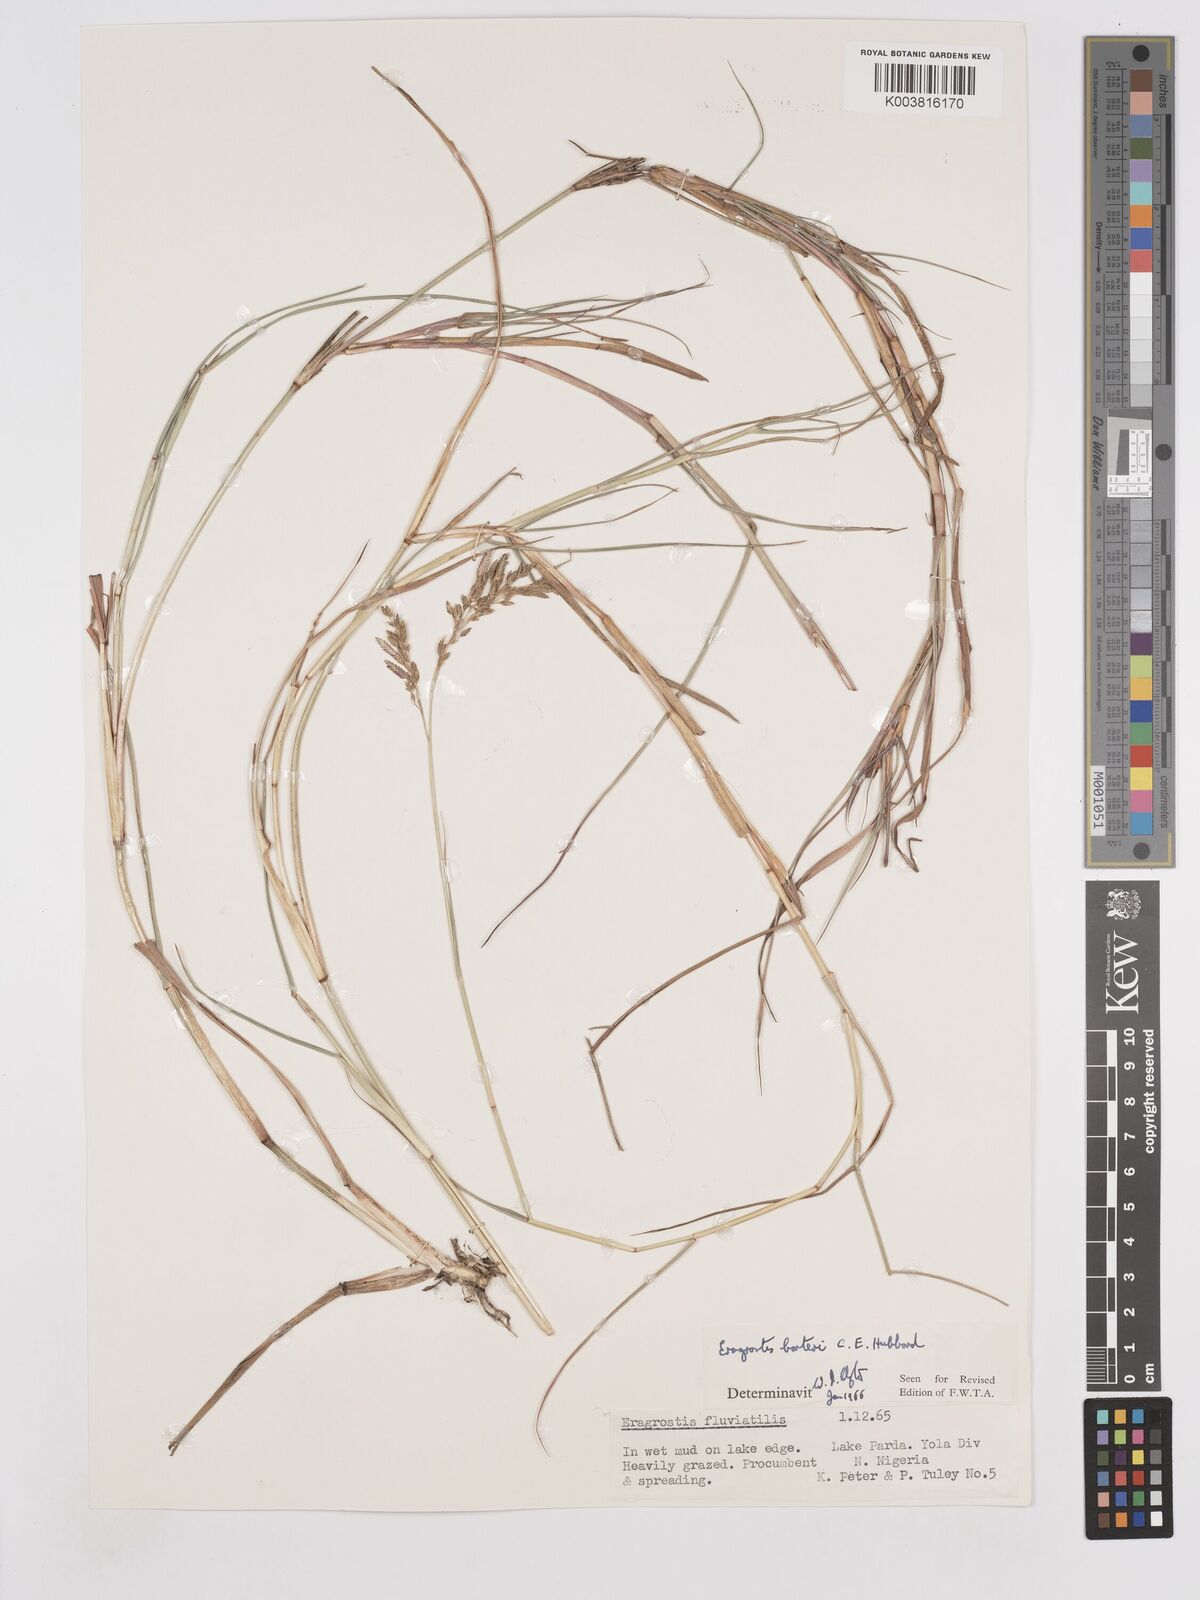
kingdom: Plantae
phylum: Tracheophyta
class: Liliopsida
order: Poales
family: Poaceae
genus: Eragrostis
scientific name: Eragrostis barteri
